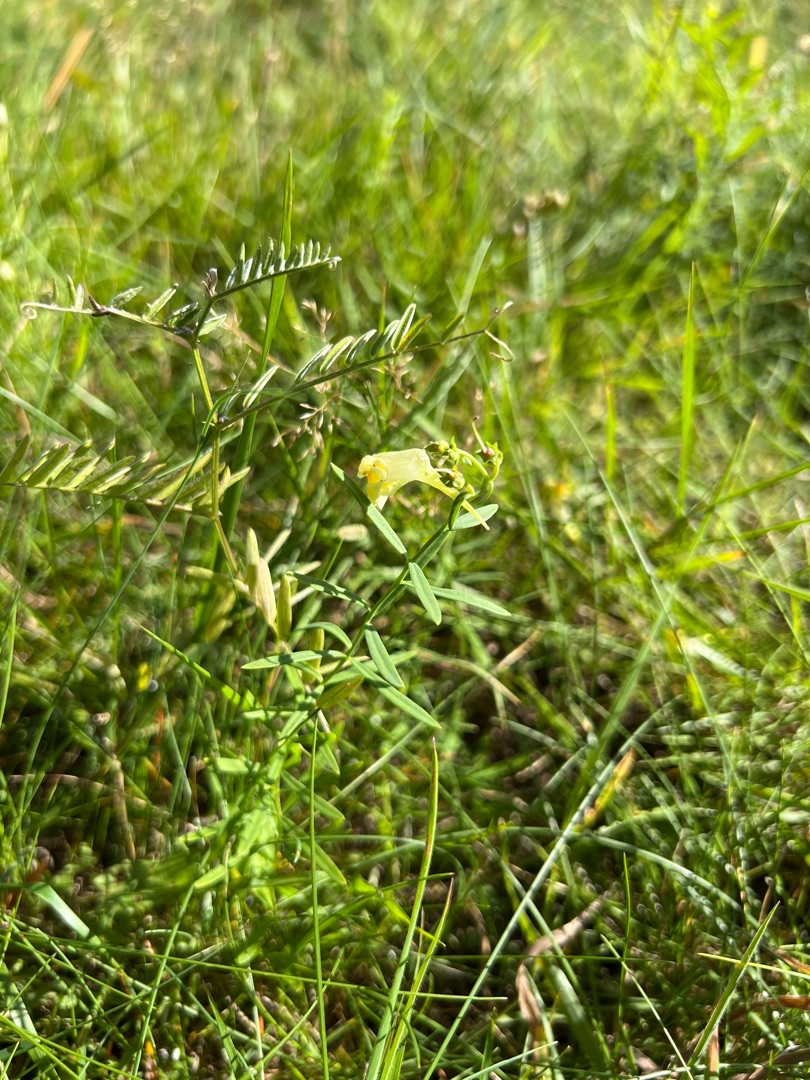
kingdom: Plantae
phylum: Tracheophyta
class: Magnoliopsida
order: Lamiales
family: Plantaginaceae
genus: Linaria
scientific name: Linaria vulgaris
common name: Almindelig torskemund
